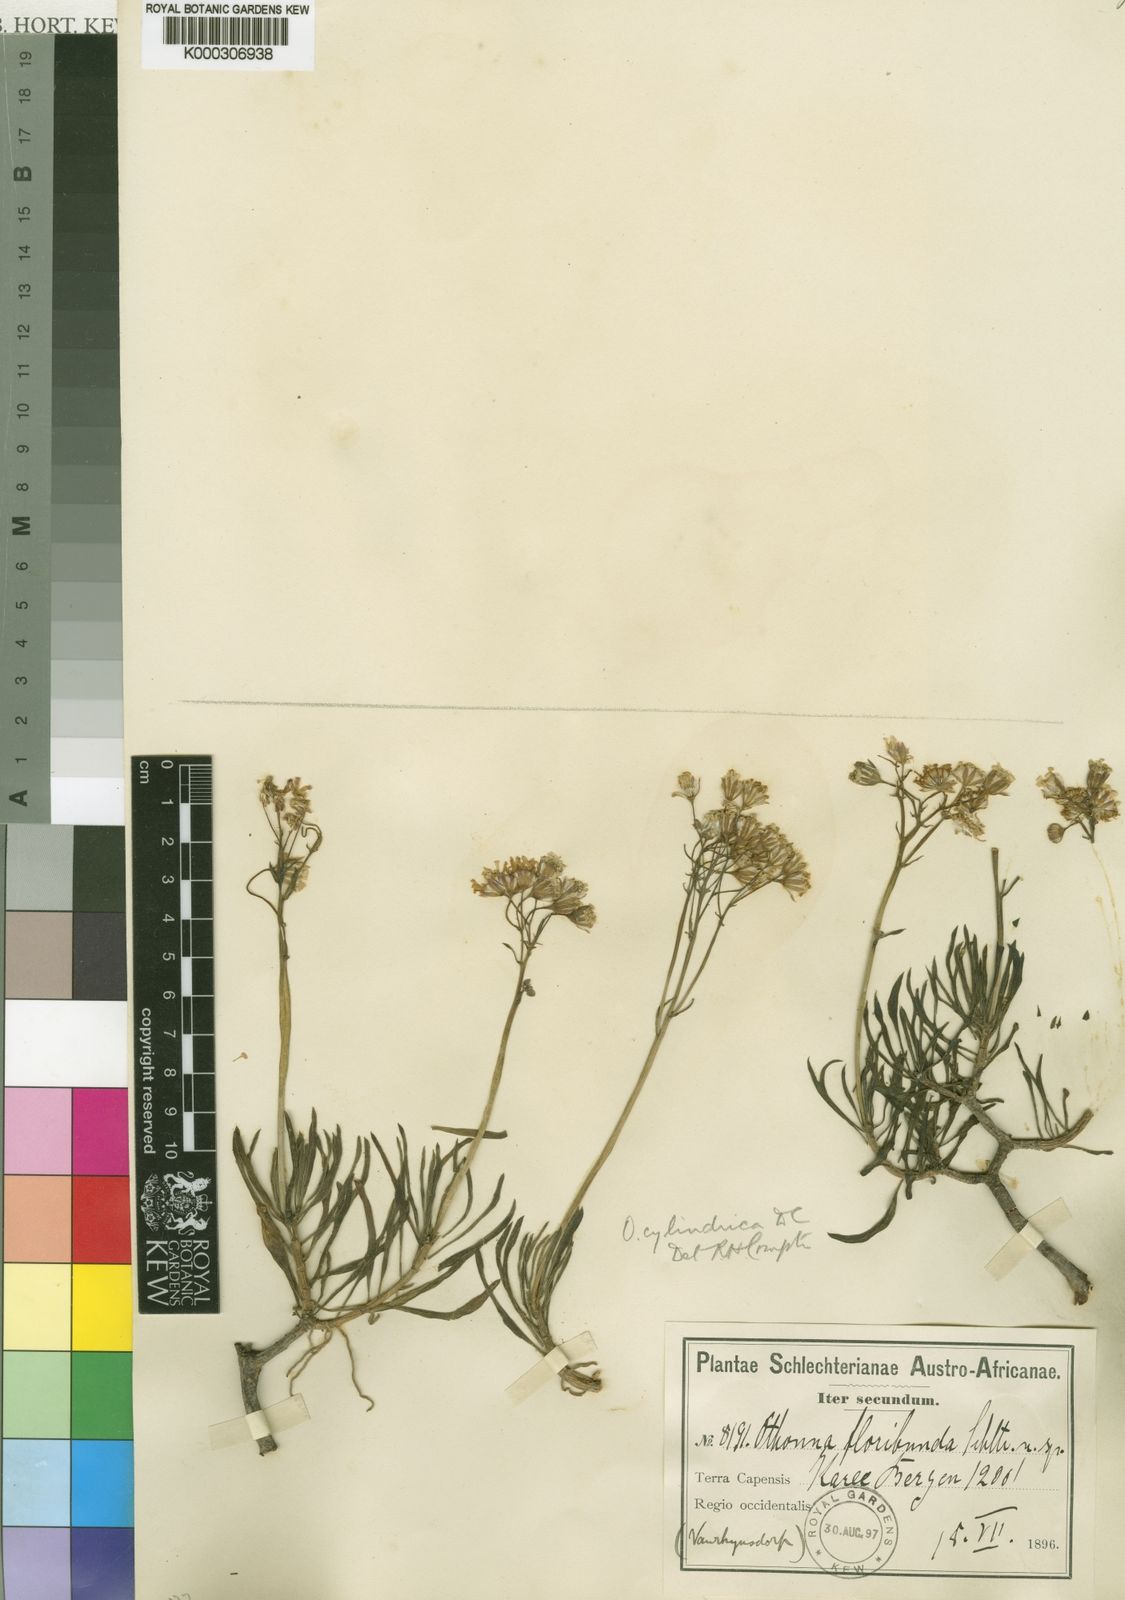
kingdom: Plantae
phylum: Tracheophyta
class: Magnoliopsida
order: Asterales
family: Asteraceae
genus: Crassothonna
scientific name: Crassothonna floribunda
